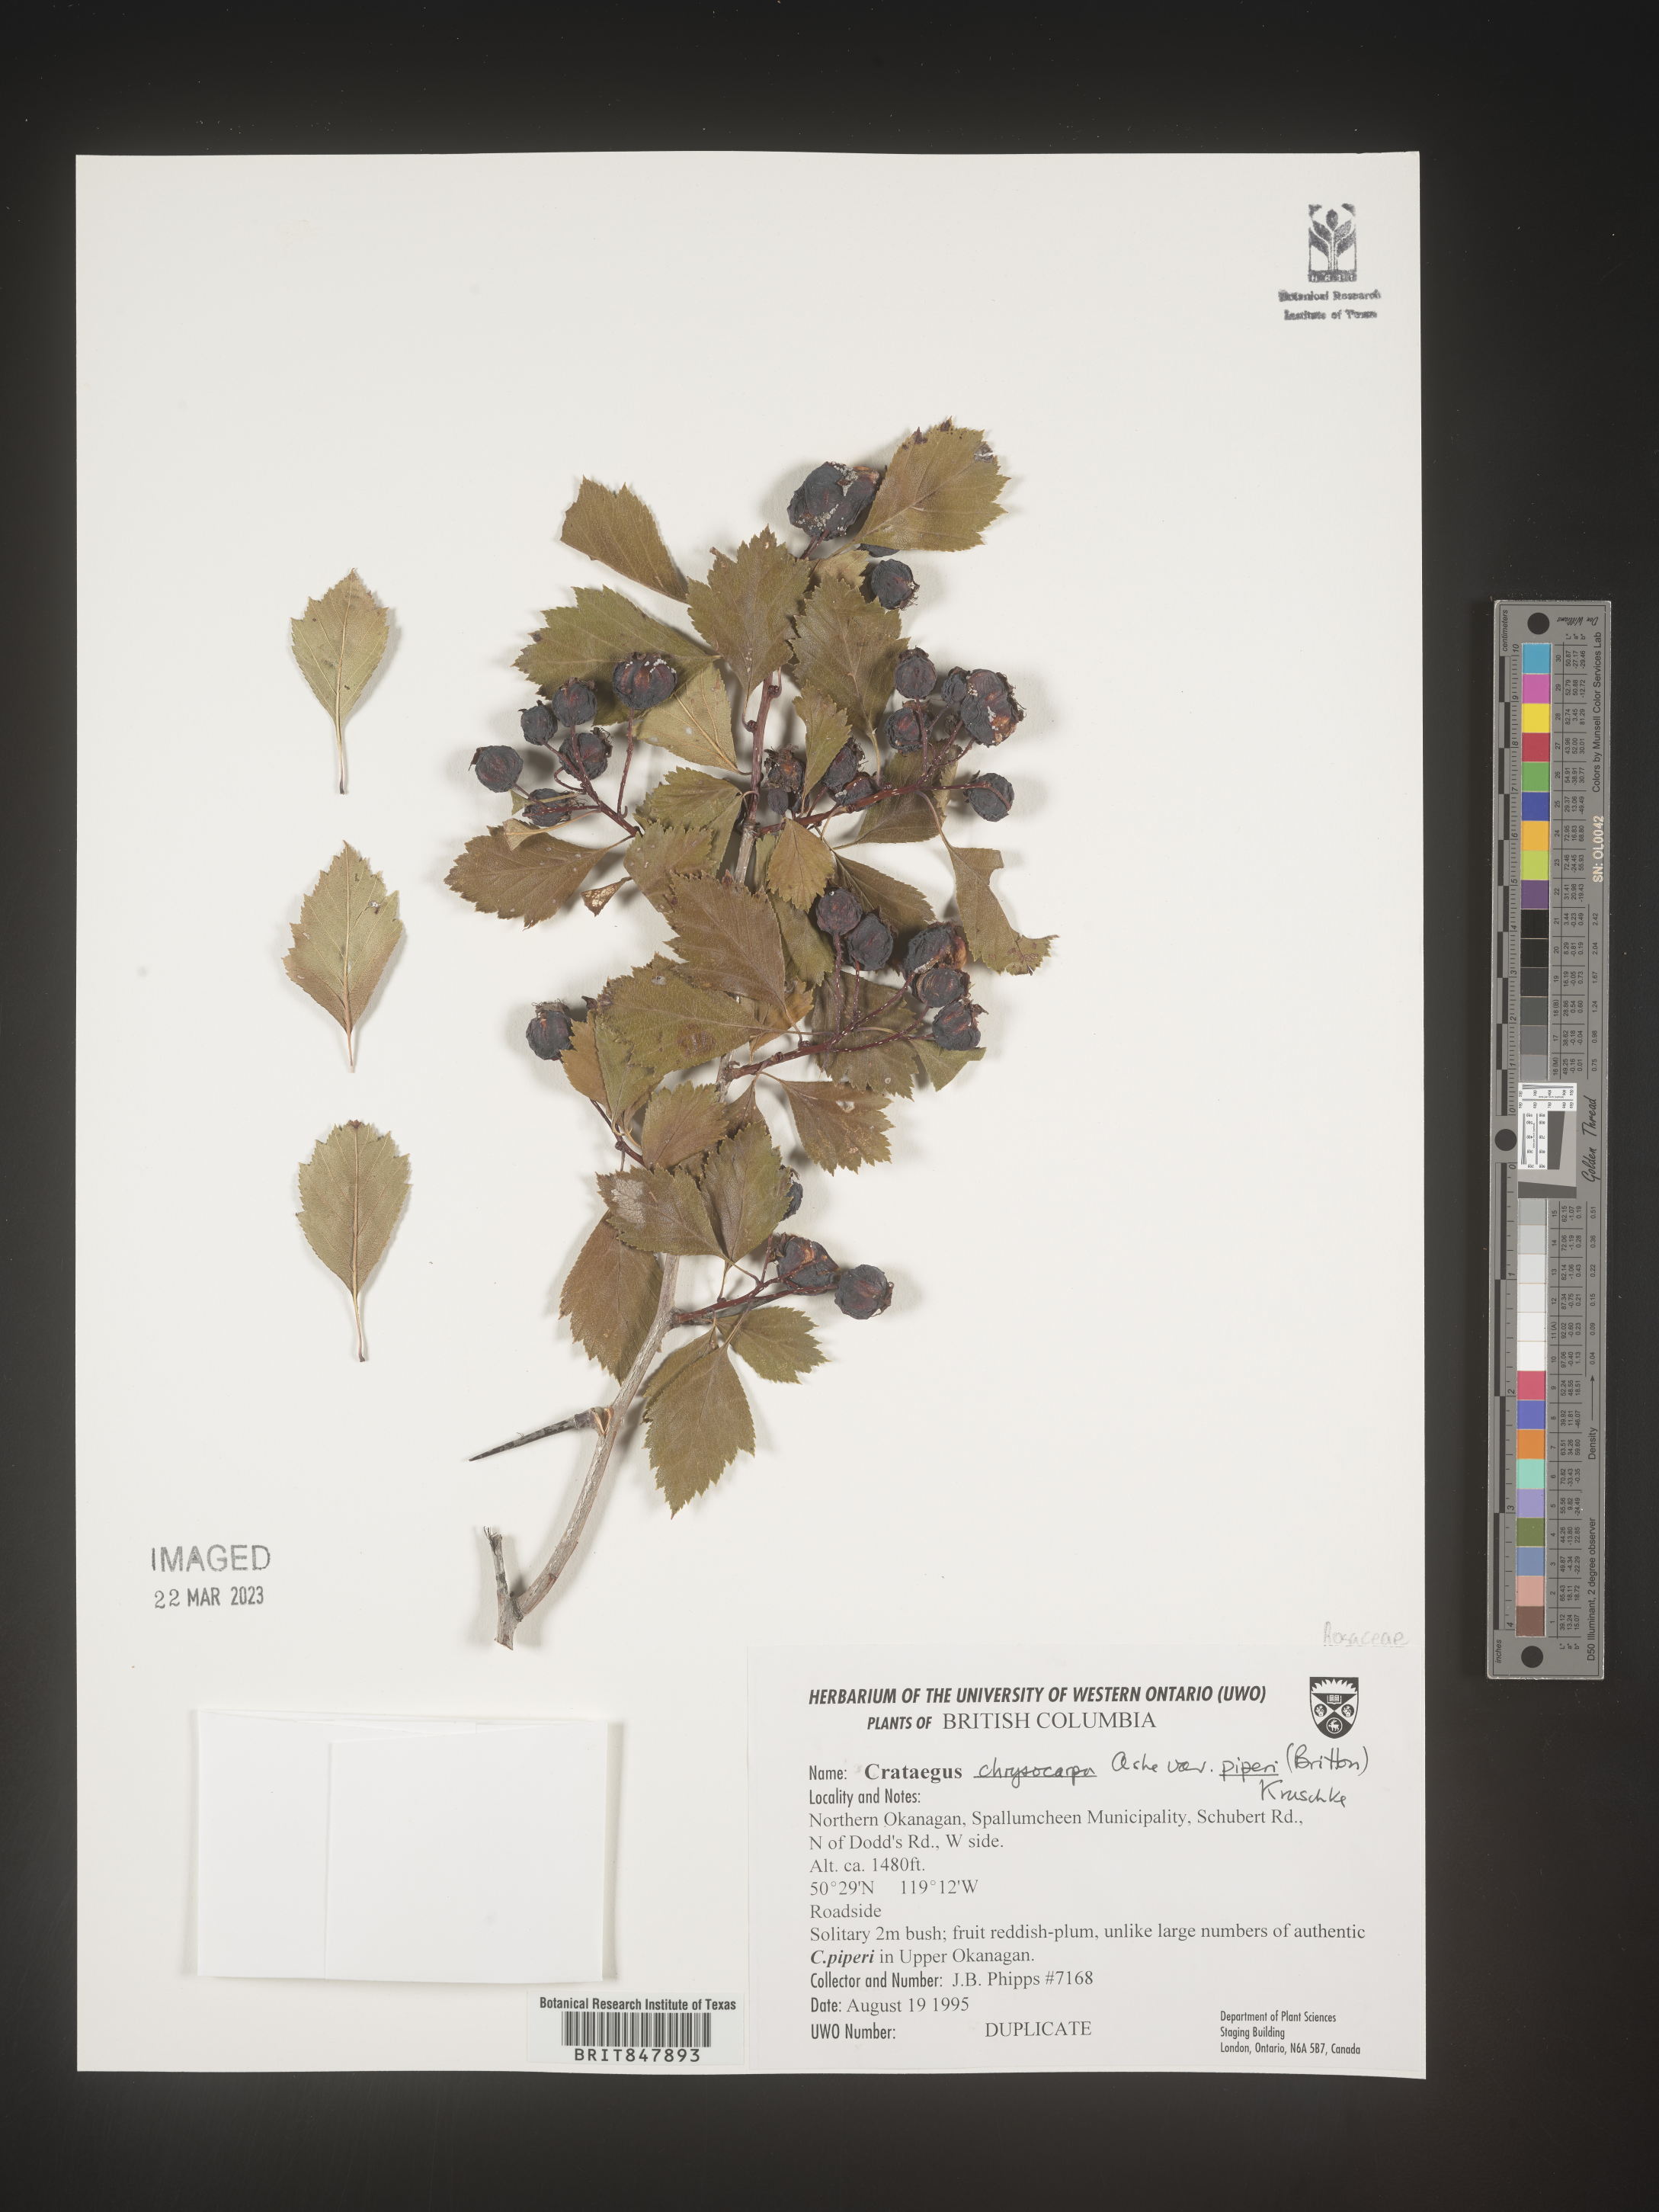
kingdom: Plantae
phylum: Tracheophyta
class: Magnoliopsida
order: Rosales
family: Rosaceae
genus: Crataegus
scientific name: Crataegus chrysocarpa
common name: Fire-berry hawthorn
